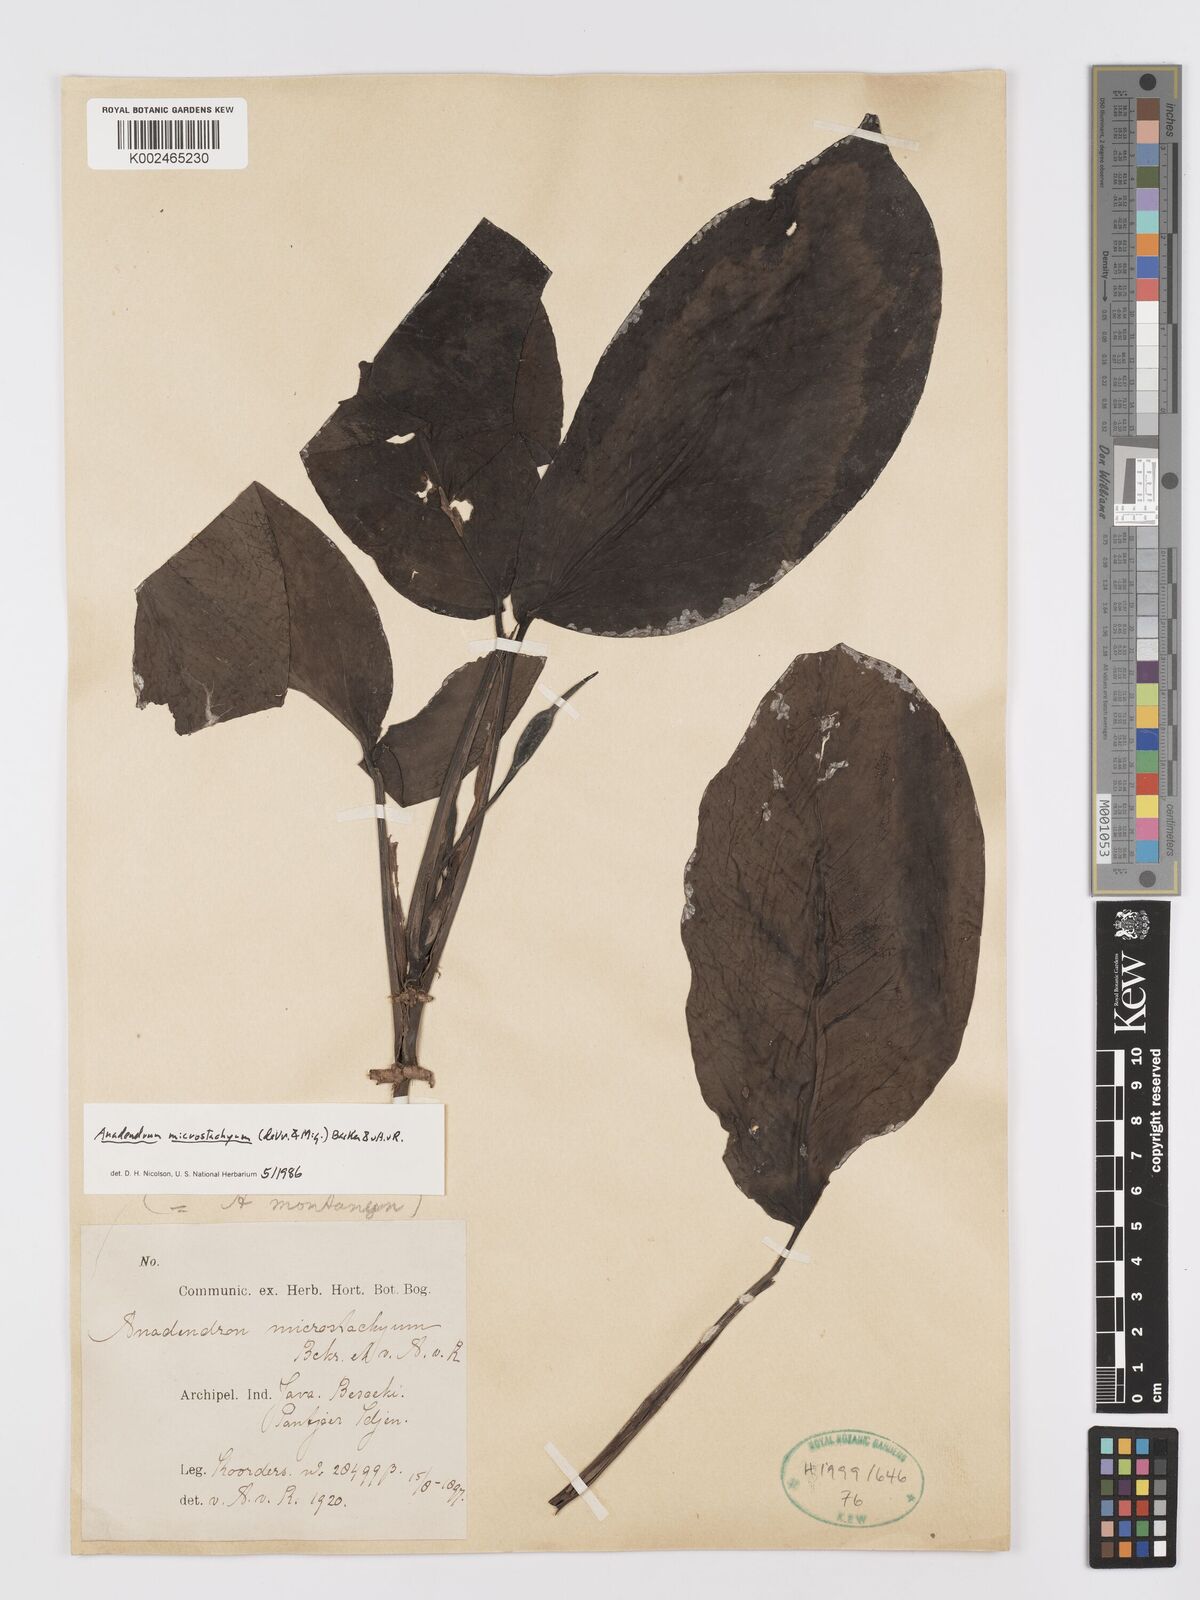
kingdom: Plantae
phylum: Tracheophyta
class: Liliopsida
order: Alismatales
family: Araceae
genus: Anadendrum
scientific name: Anadendrum microstachyum
